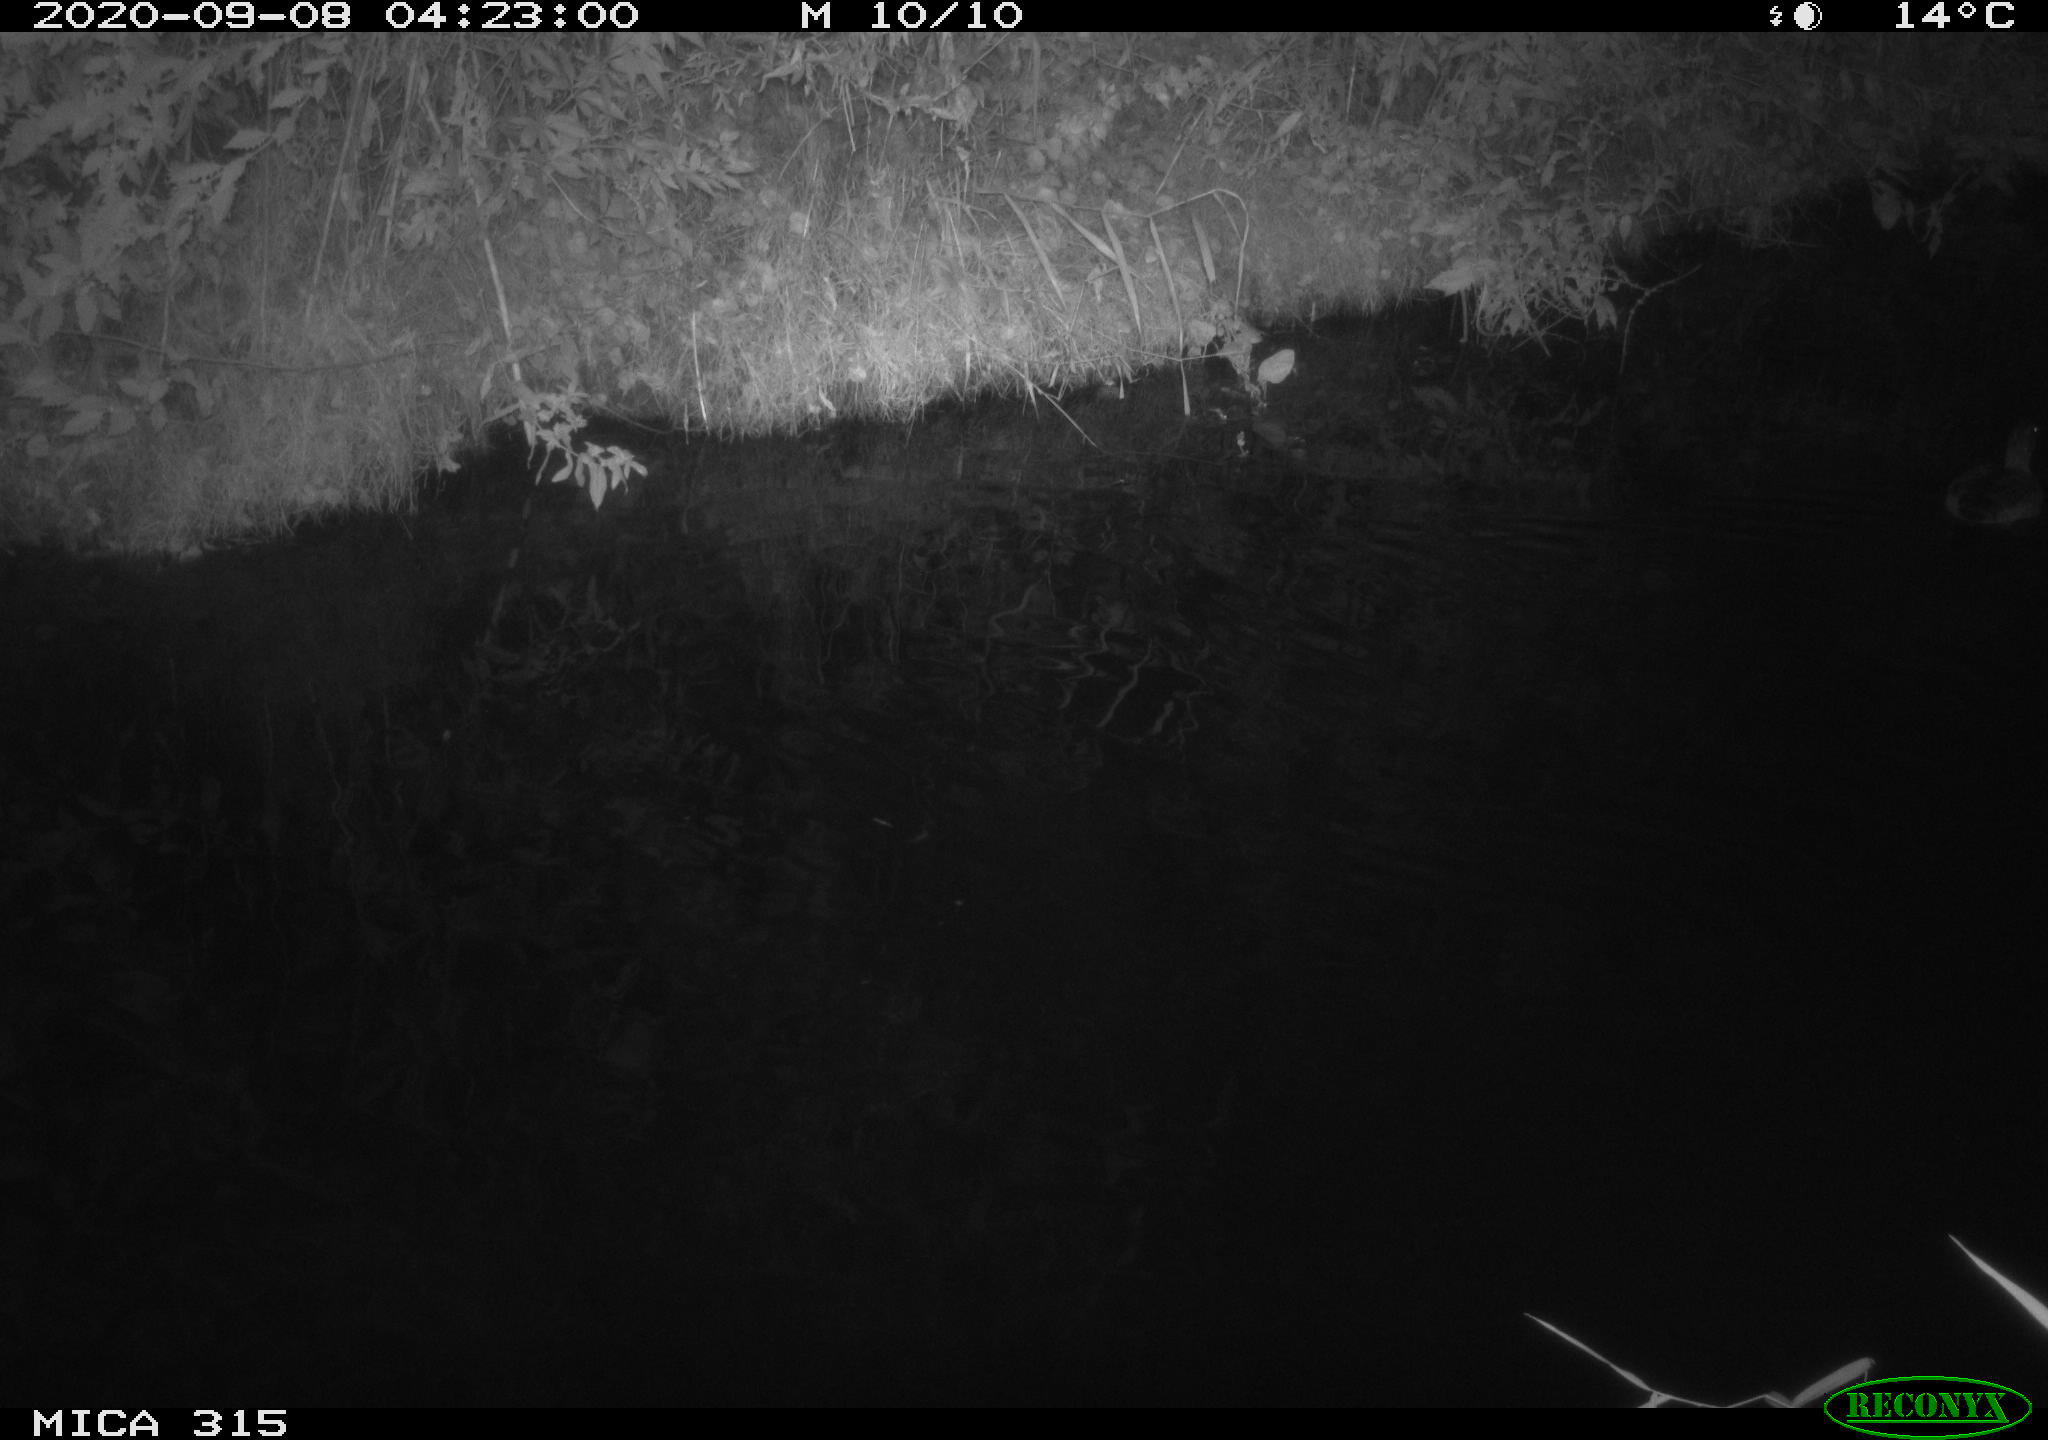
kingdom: Animalia
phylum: Chordata
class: Aves
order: Anseriformes
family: Anatidae
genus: Anas
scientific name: Anas platyrhynchos
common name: Mallard
